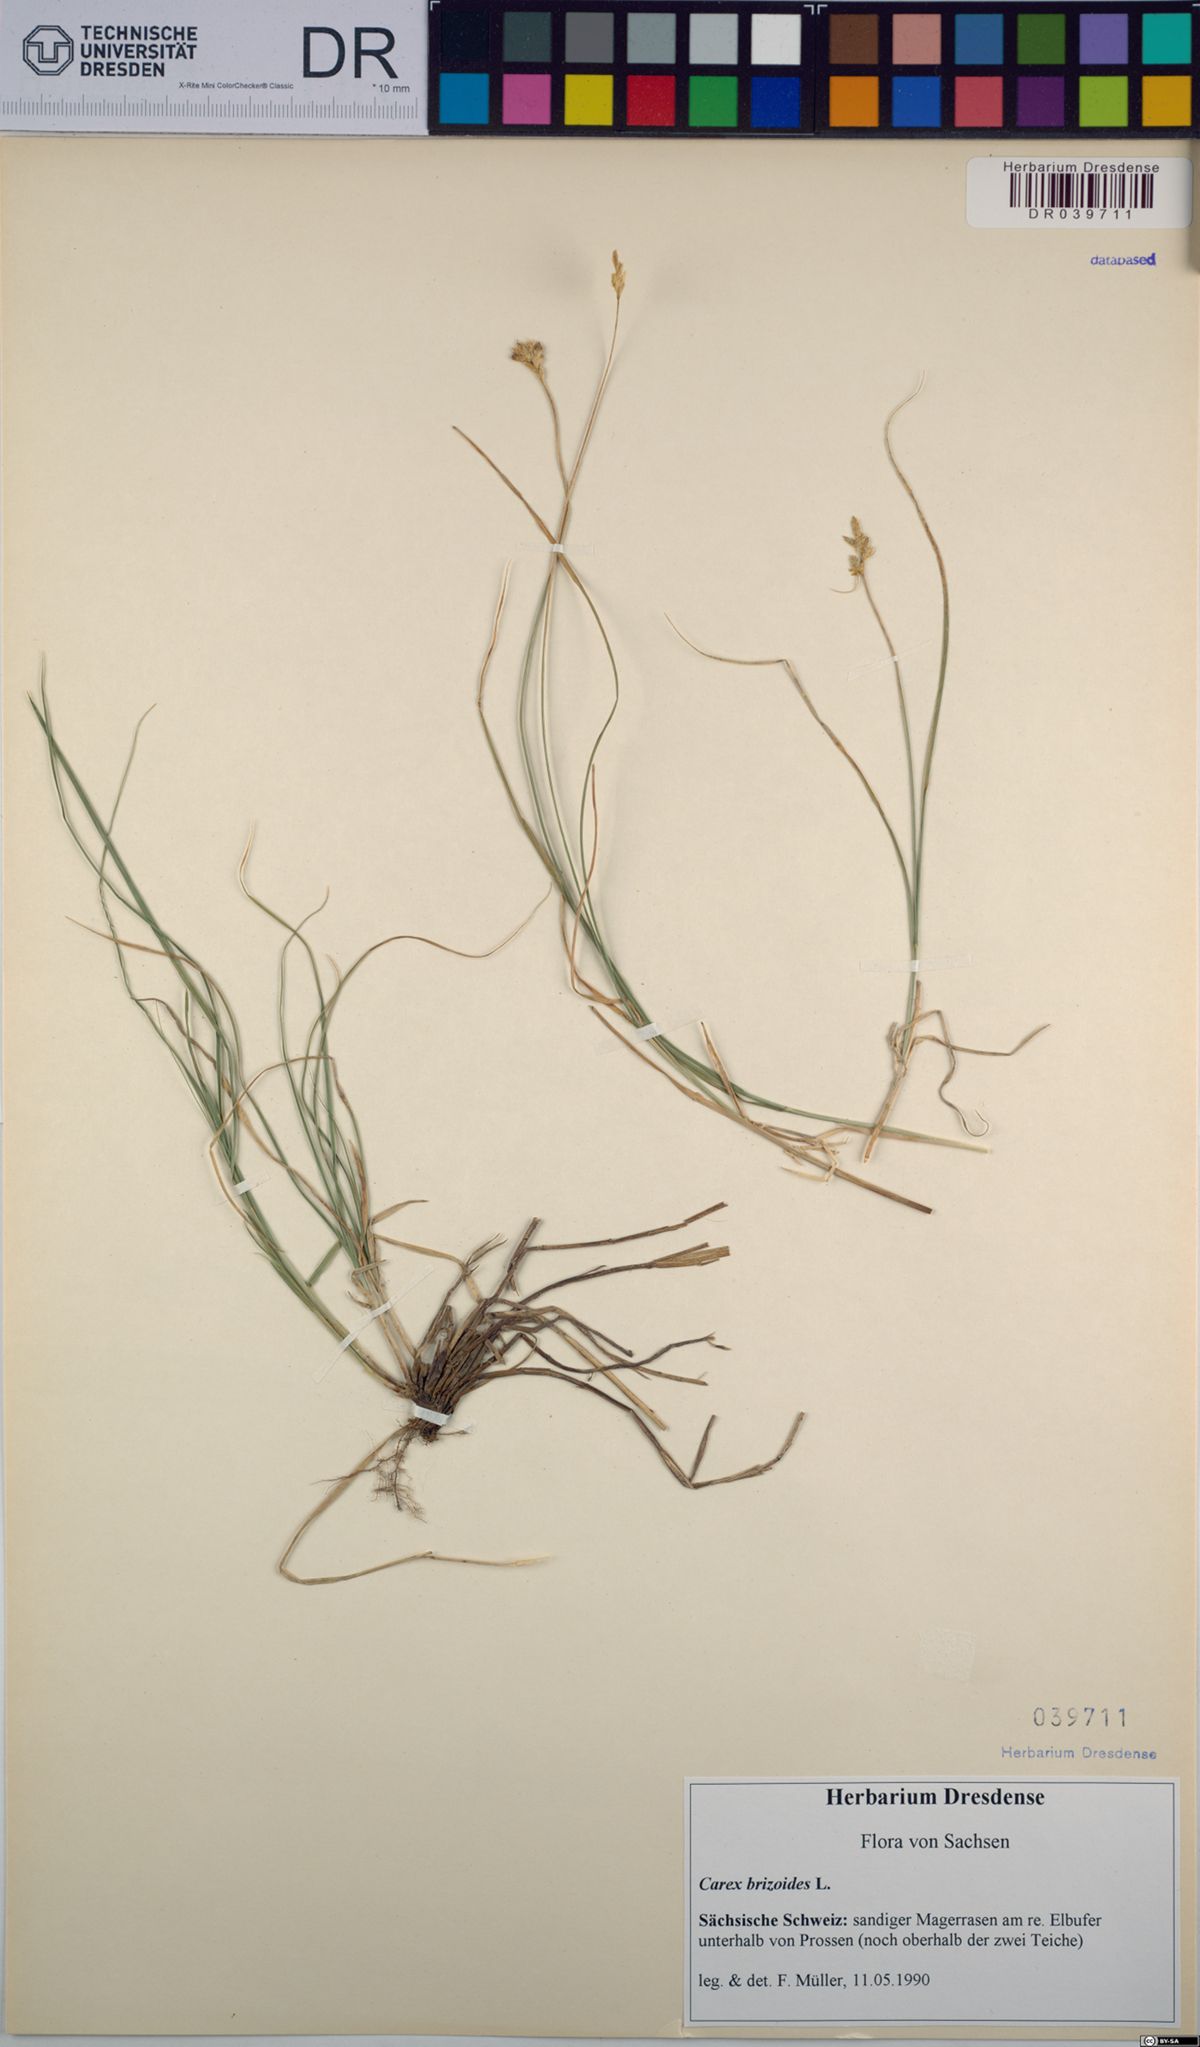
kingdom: Plantae
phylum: Tracheophyta
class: Liliopsida
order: Poales
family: Cyperaceae
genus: Carex
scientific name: Carex brizoides
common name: Quaking-grass sedge
